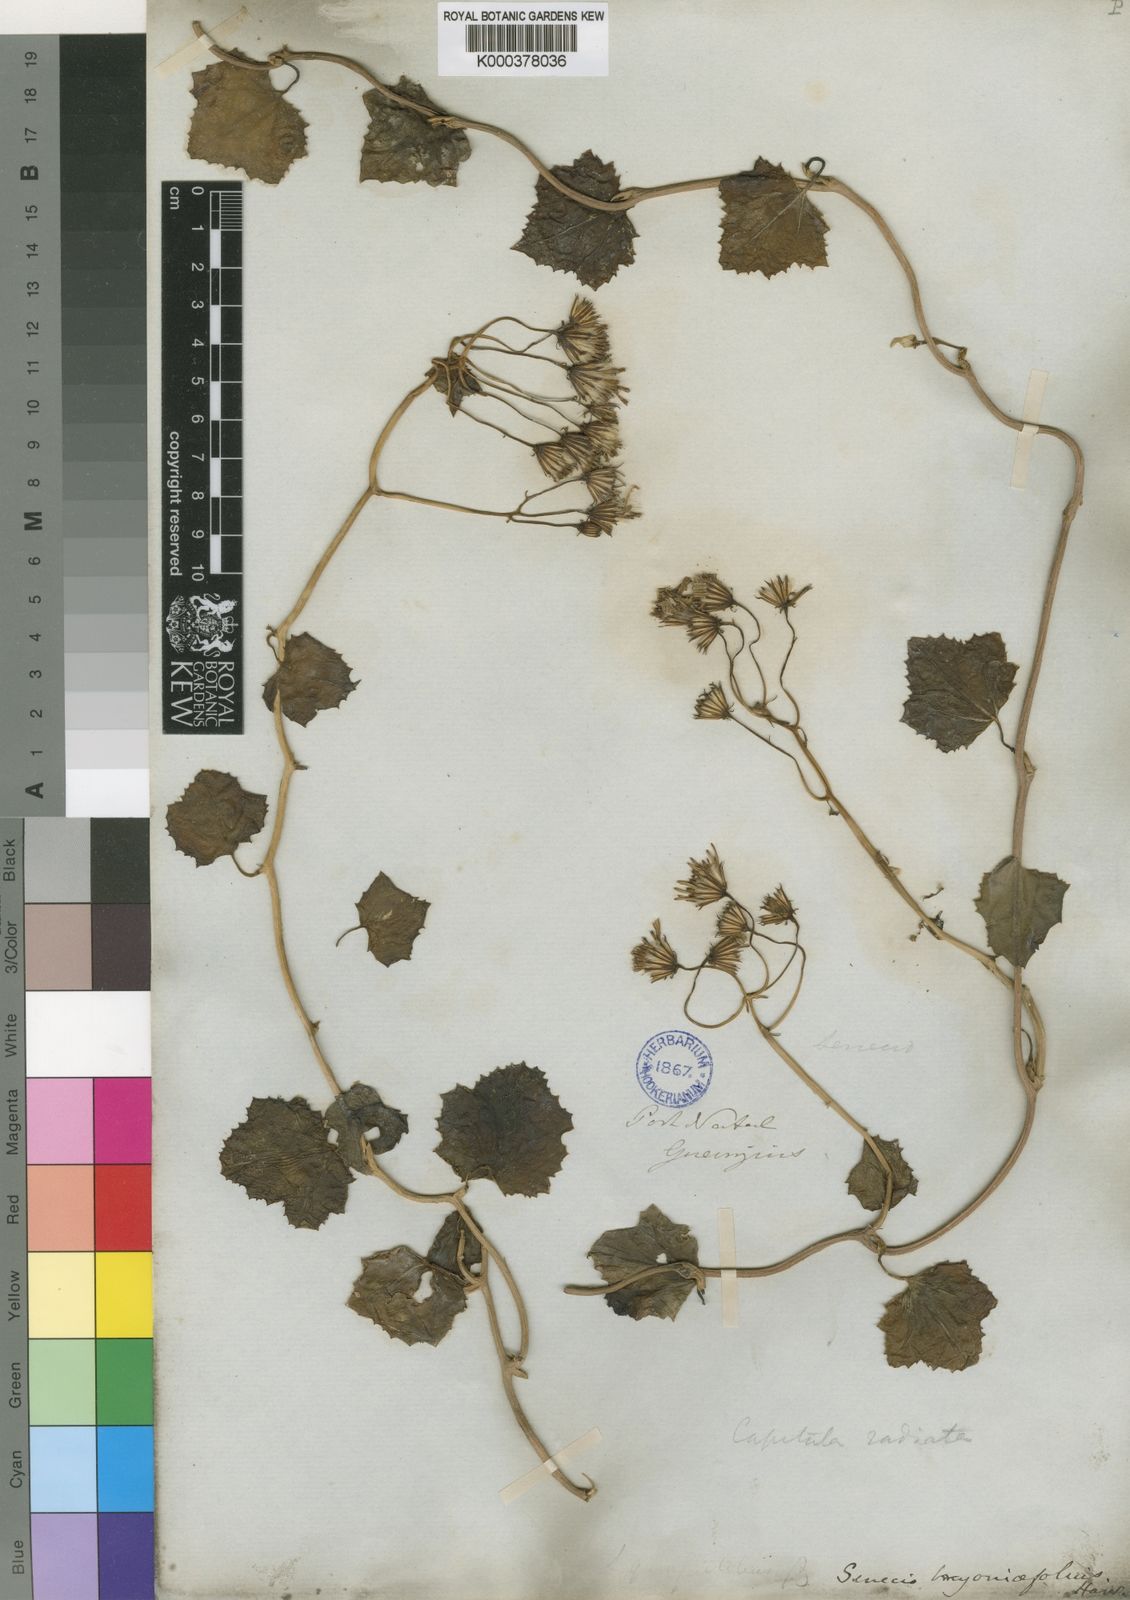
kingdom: Plantae
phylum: Tracheophyta
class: Magnoliopsida
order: Asterales
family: Asteraceae
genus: Senecio
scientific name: Senecio
